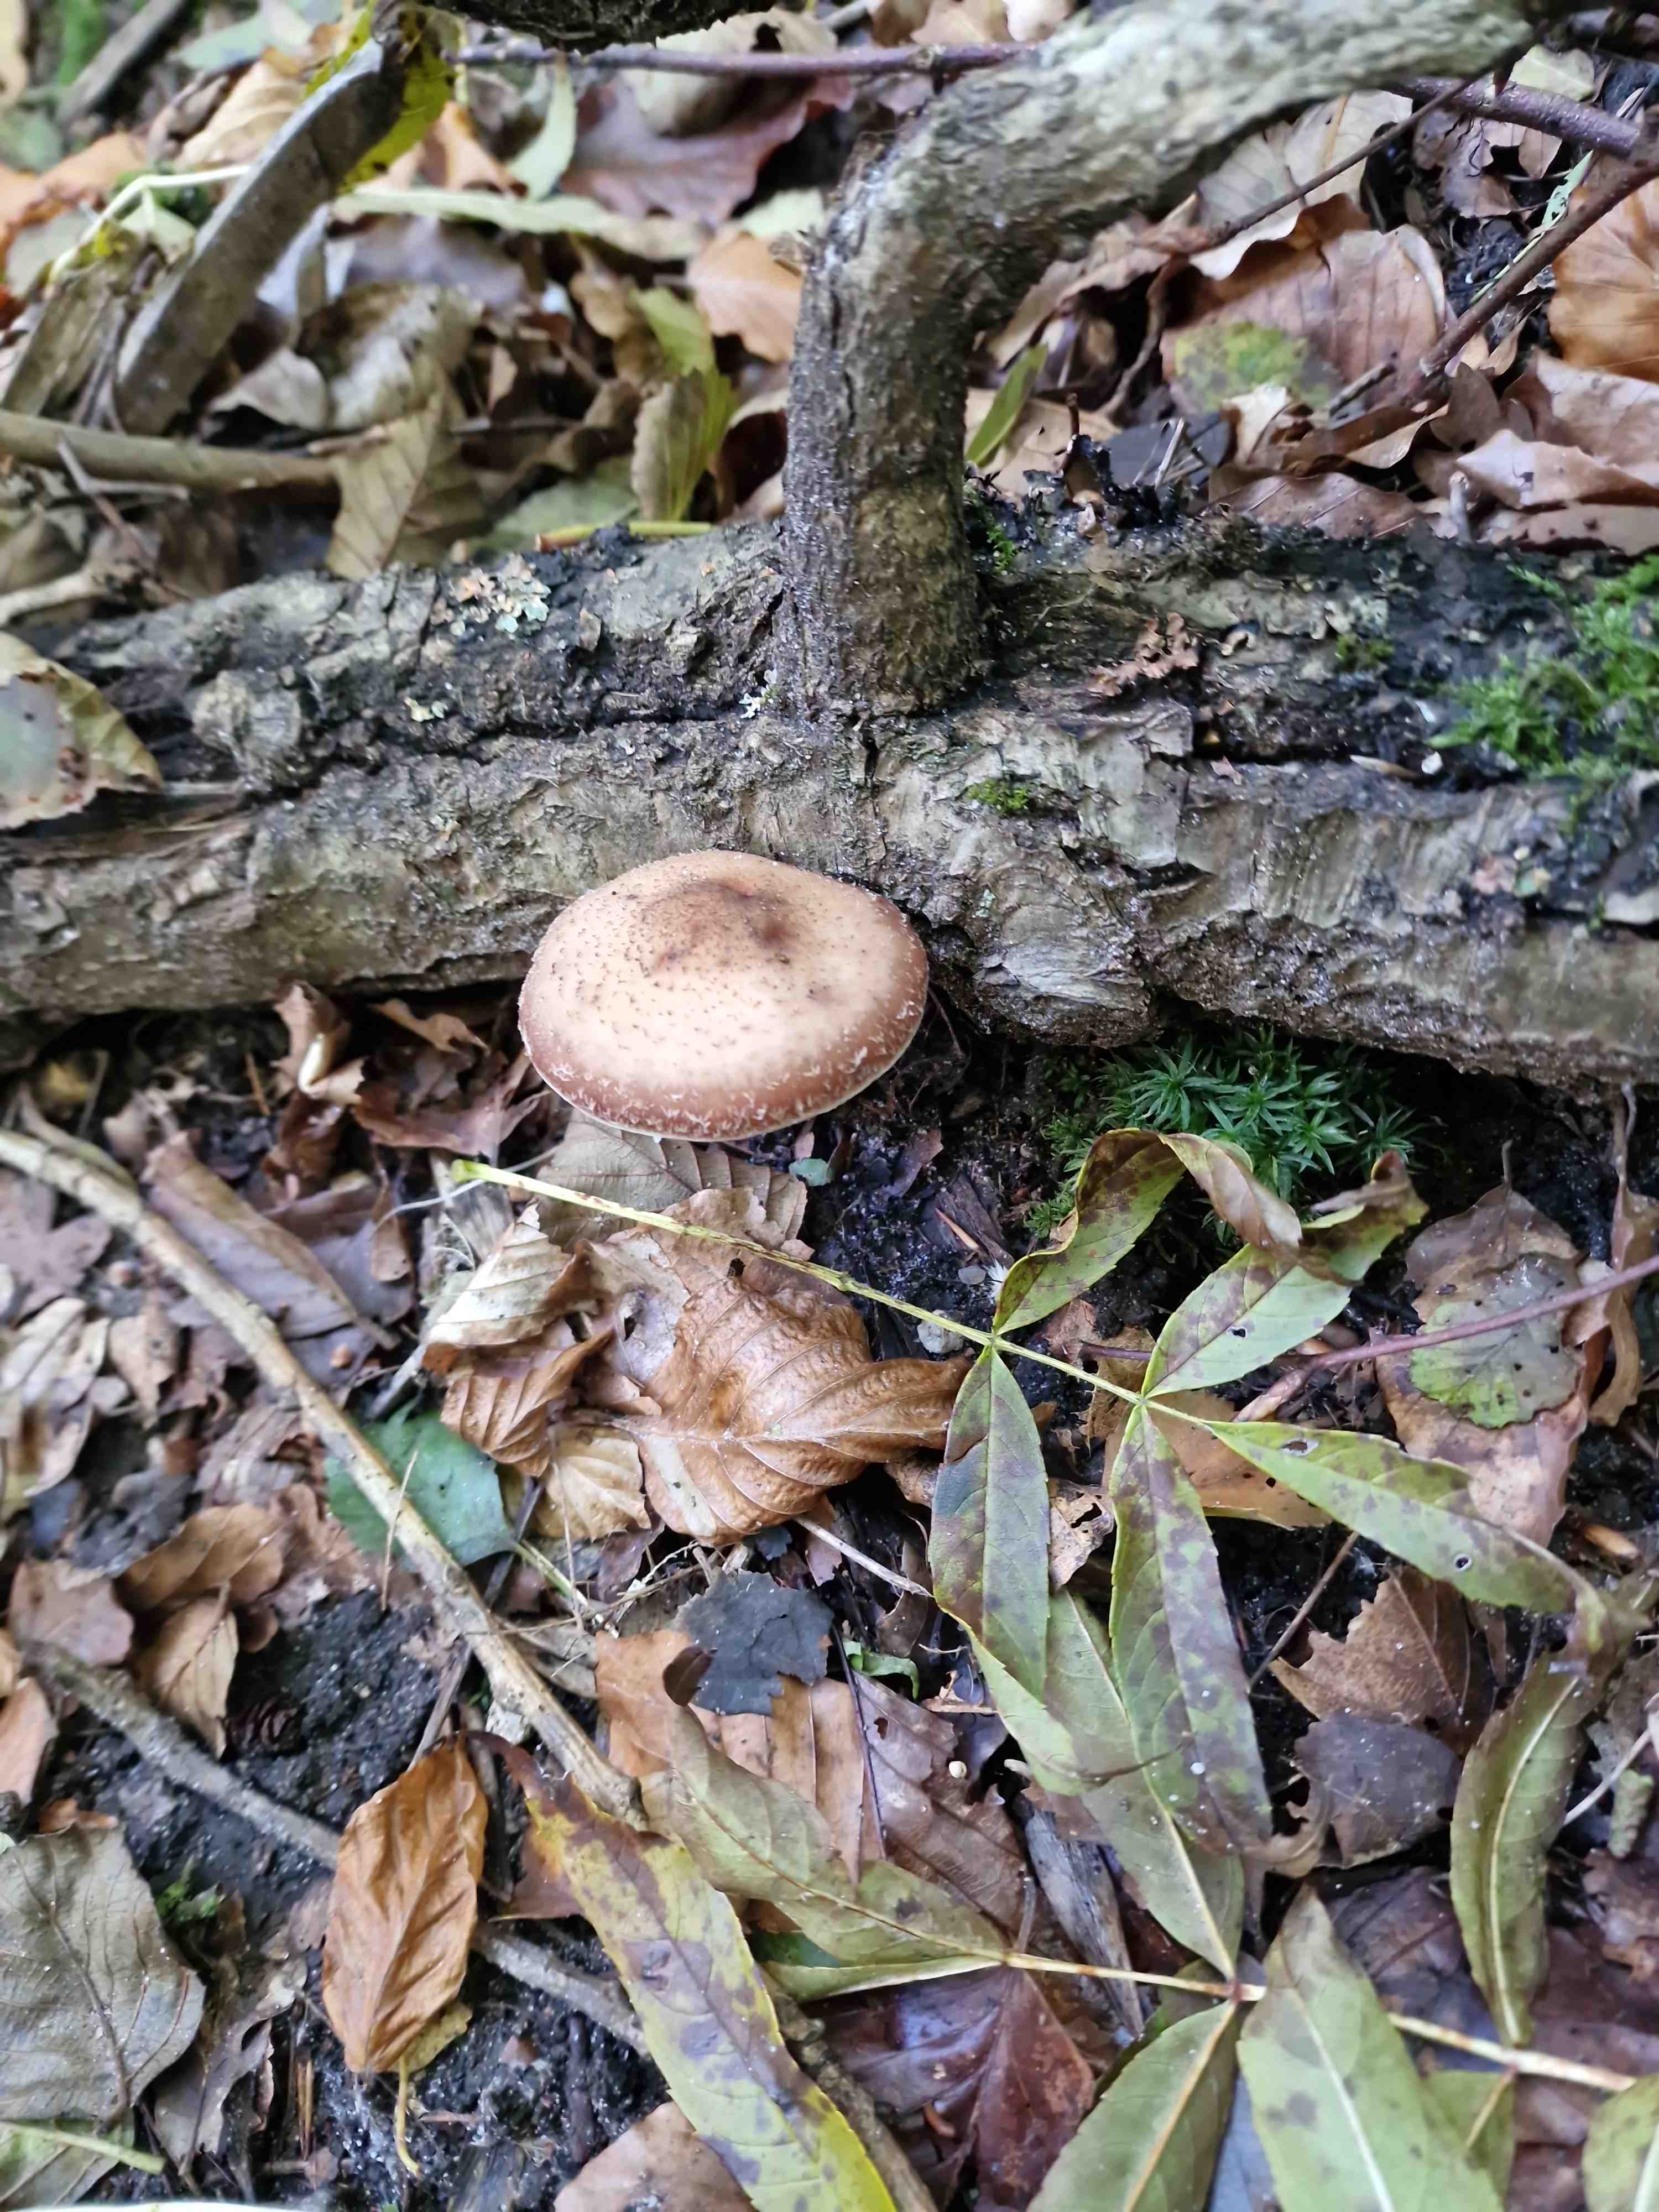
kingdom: Fungi
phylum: Basidiomycota
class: Agaricomycetes
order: Agaricales
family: Physalacriaceae
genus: Armillaria
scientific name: Armillaria
